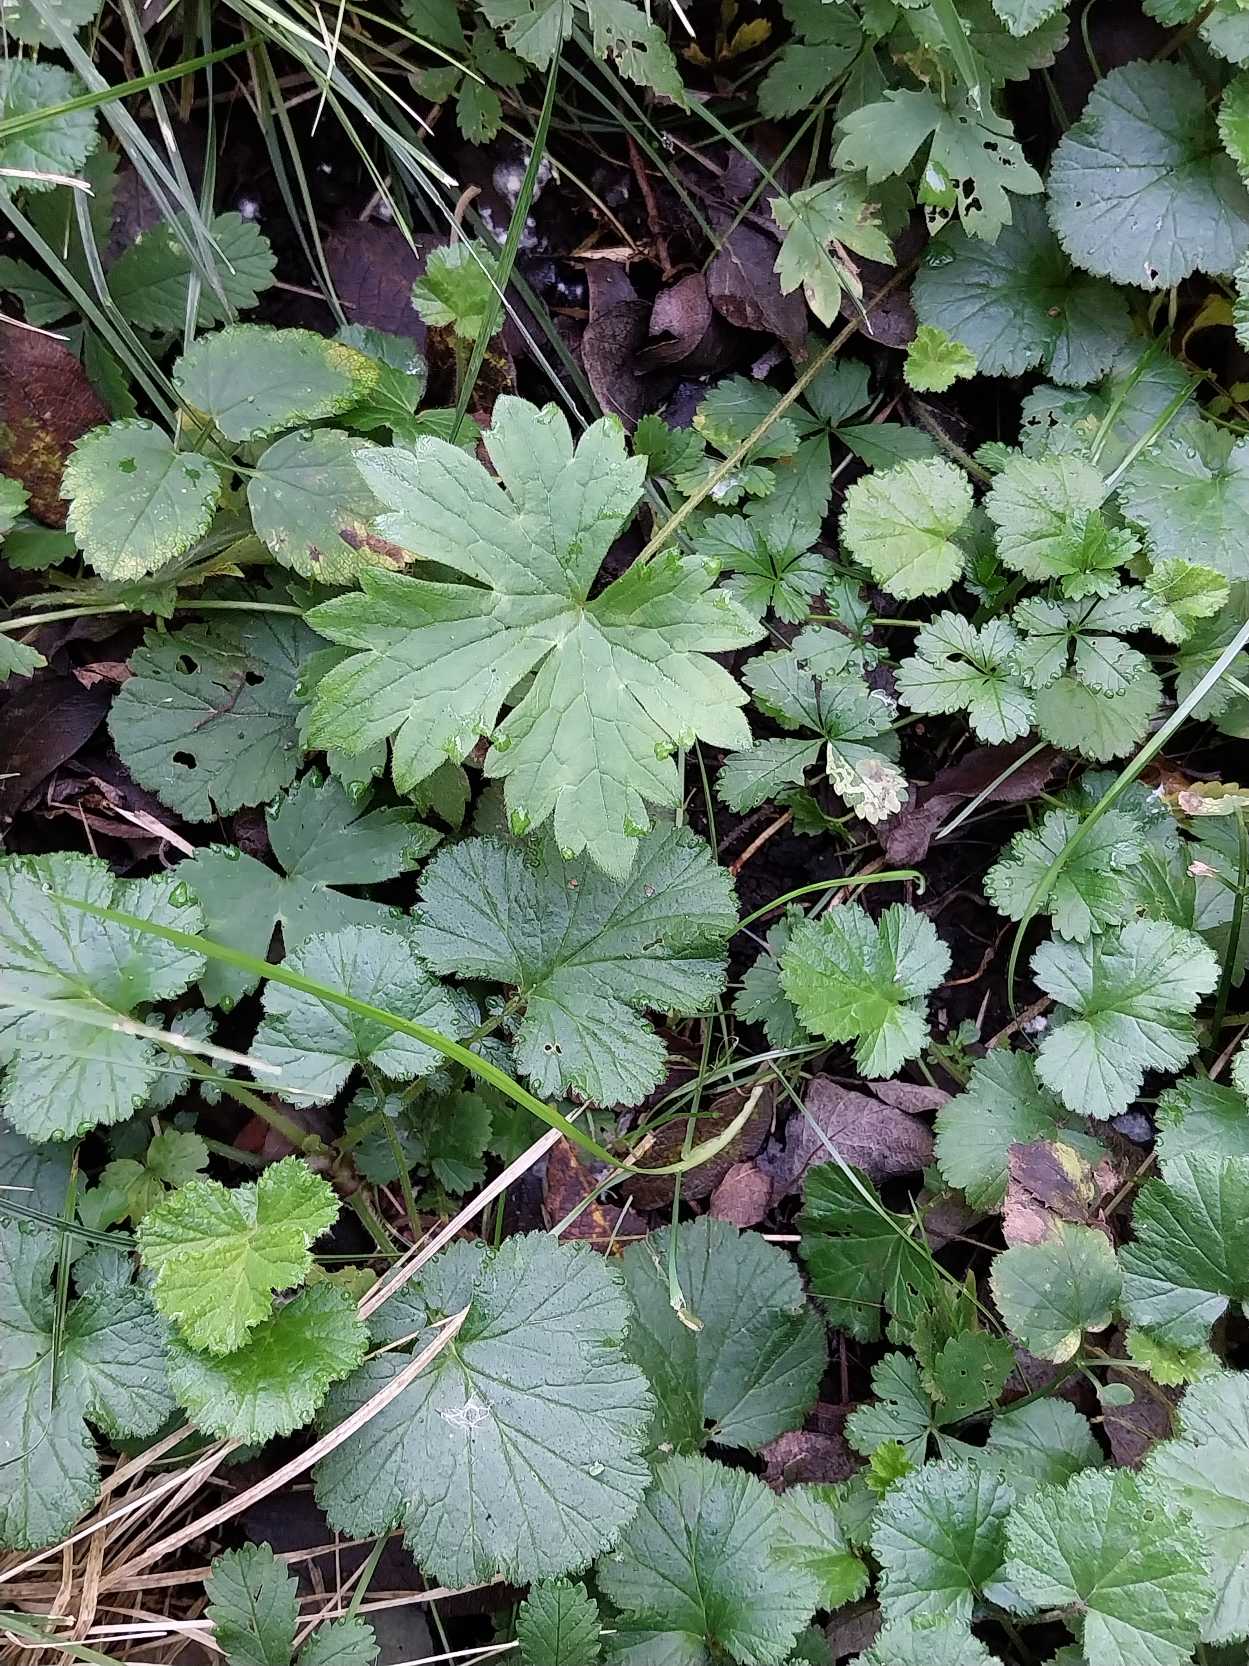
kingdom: Plantae
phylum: Tracheophyta
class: Magnoliopsida
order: Ranunculales
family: Ranunculaceae
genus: Ranunculus
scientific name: Ranunculus acris
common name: Bidende ranunkel
